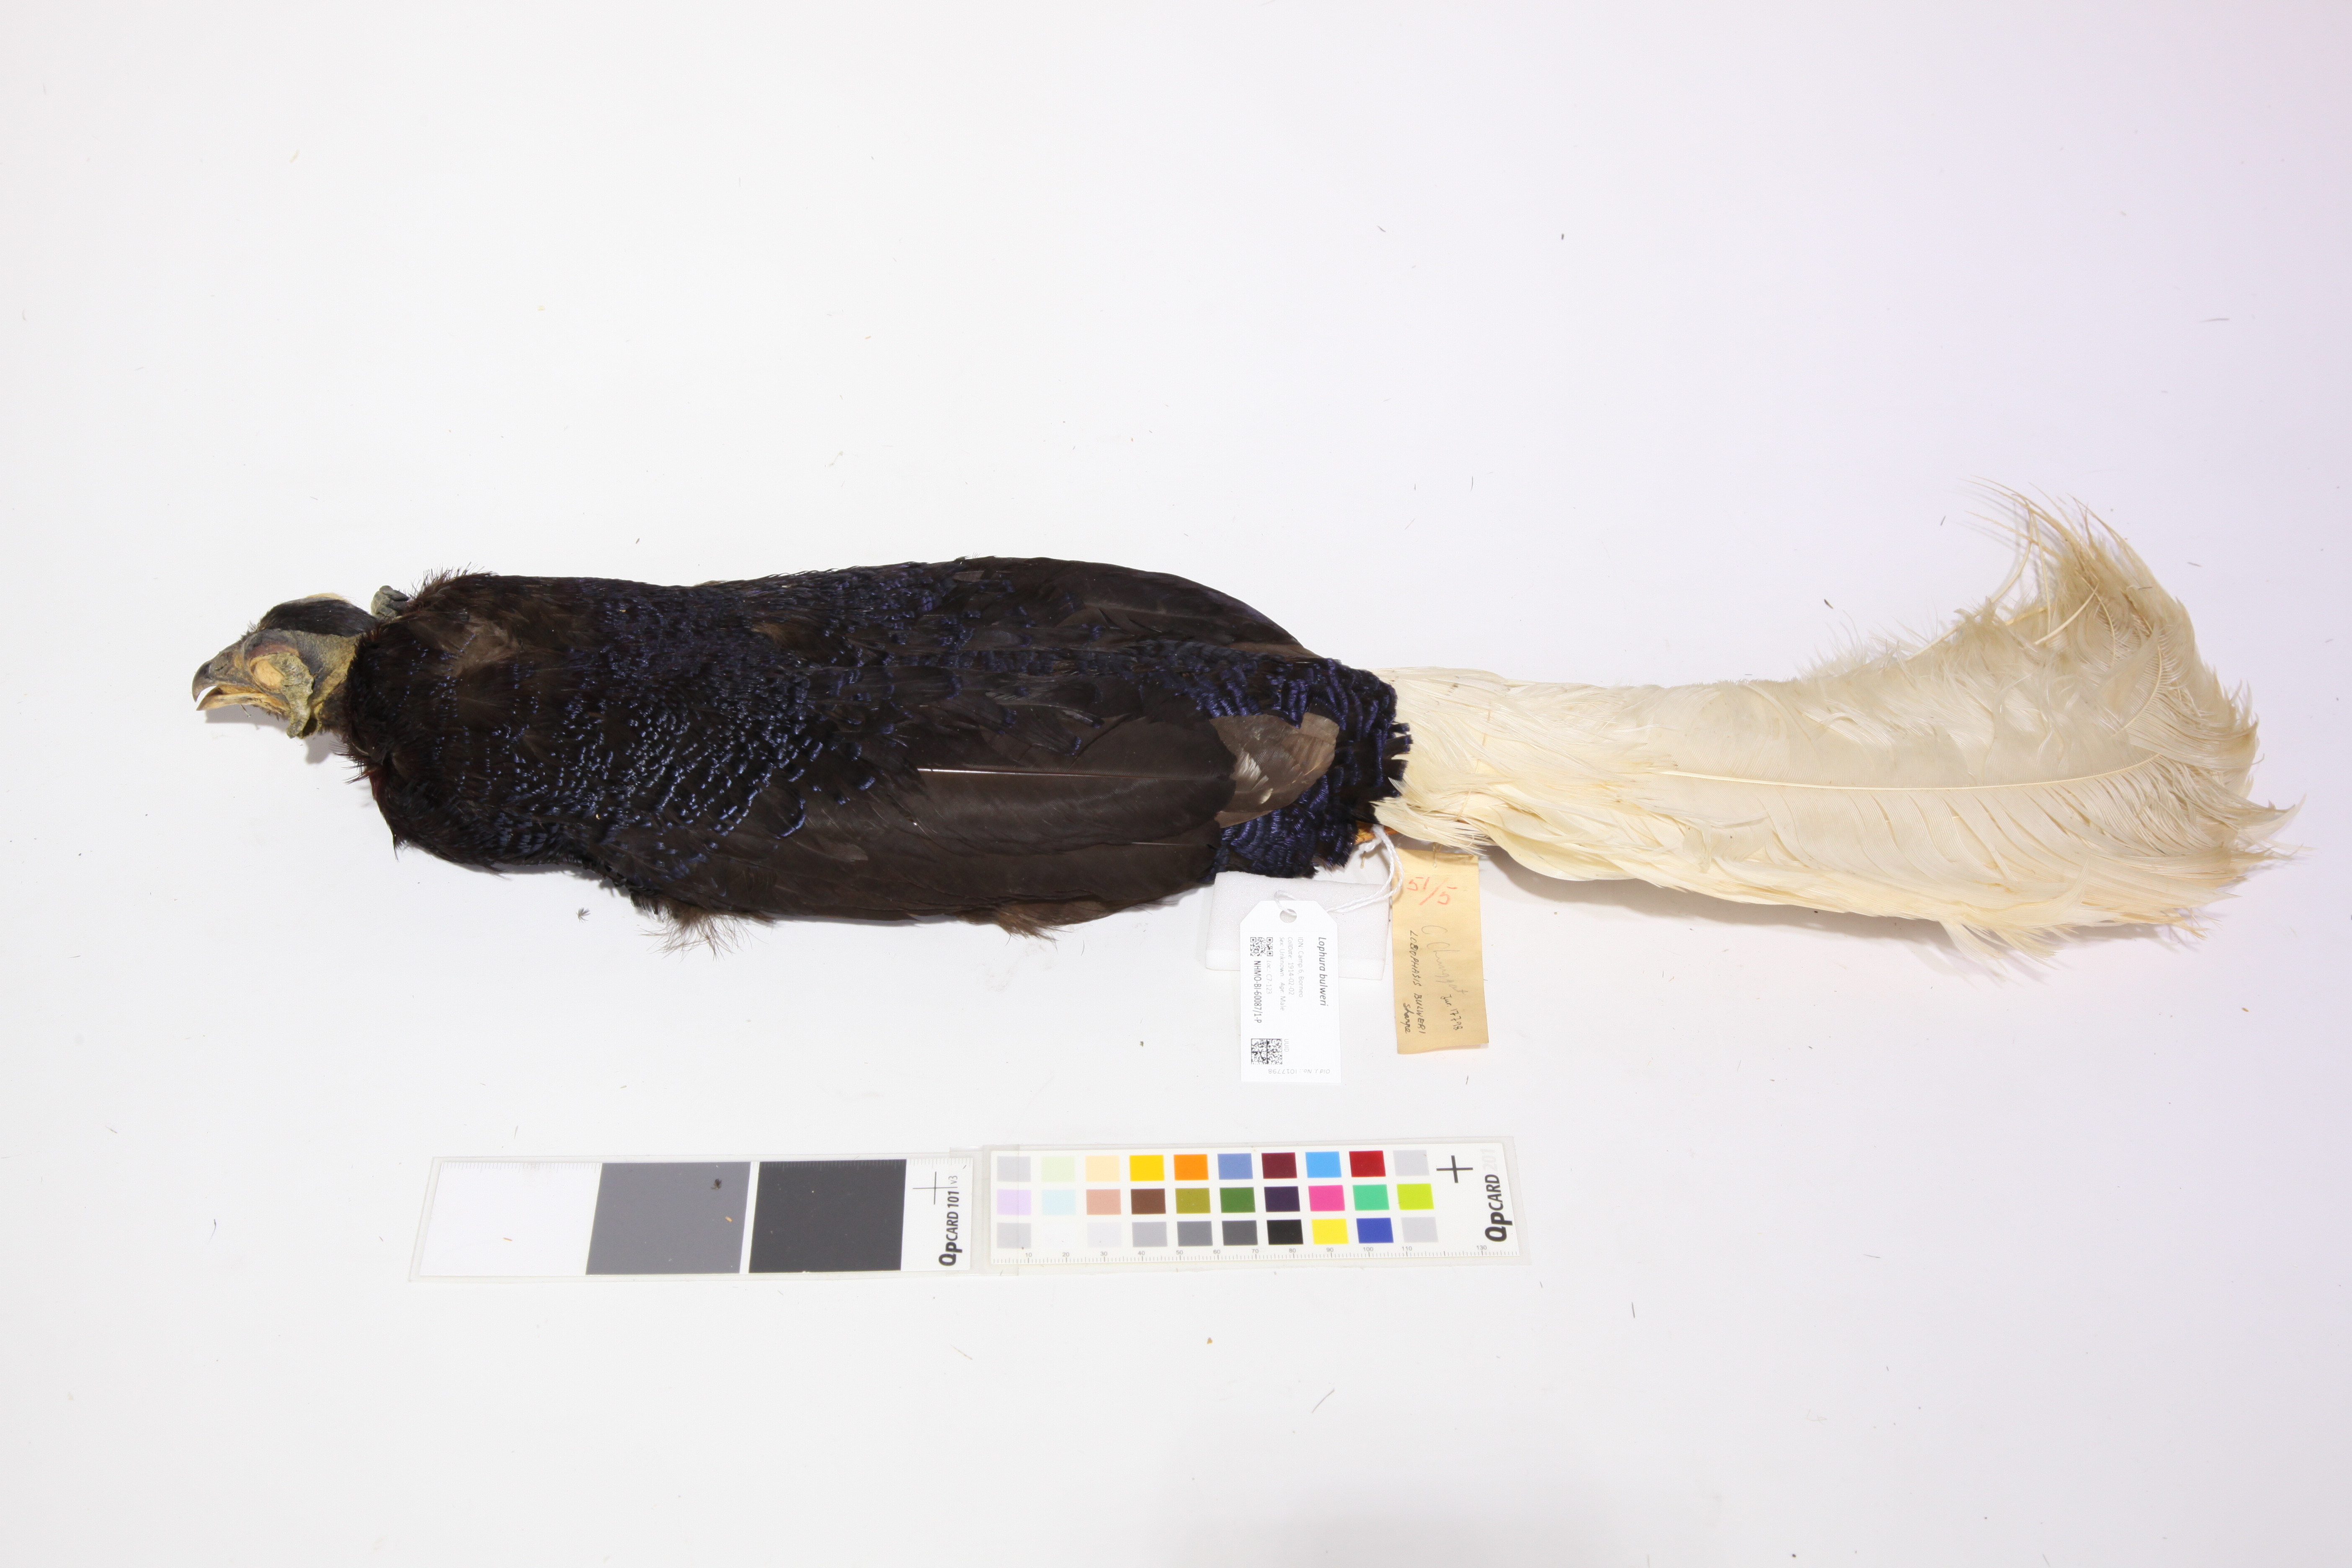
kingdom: Animalia
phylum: Chordata
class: Aves
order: Galliformes
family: Phasianidae
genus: Lophura
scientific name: Lophura bulweri
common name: Bulwer's pheasant
